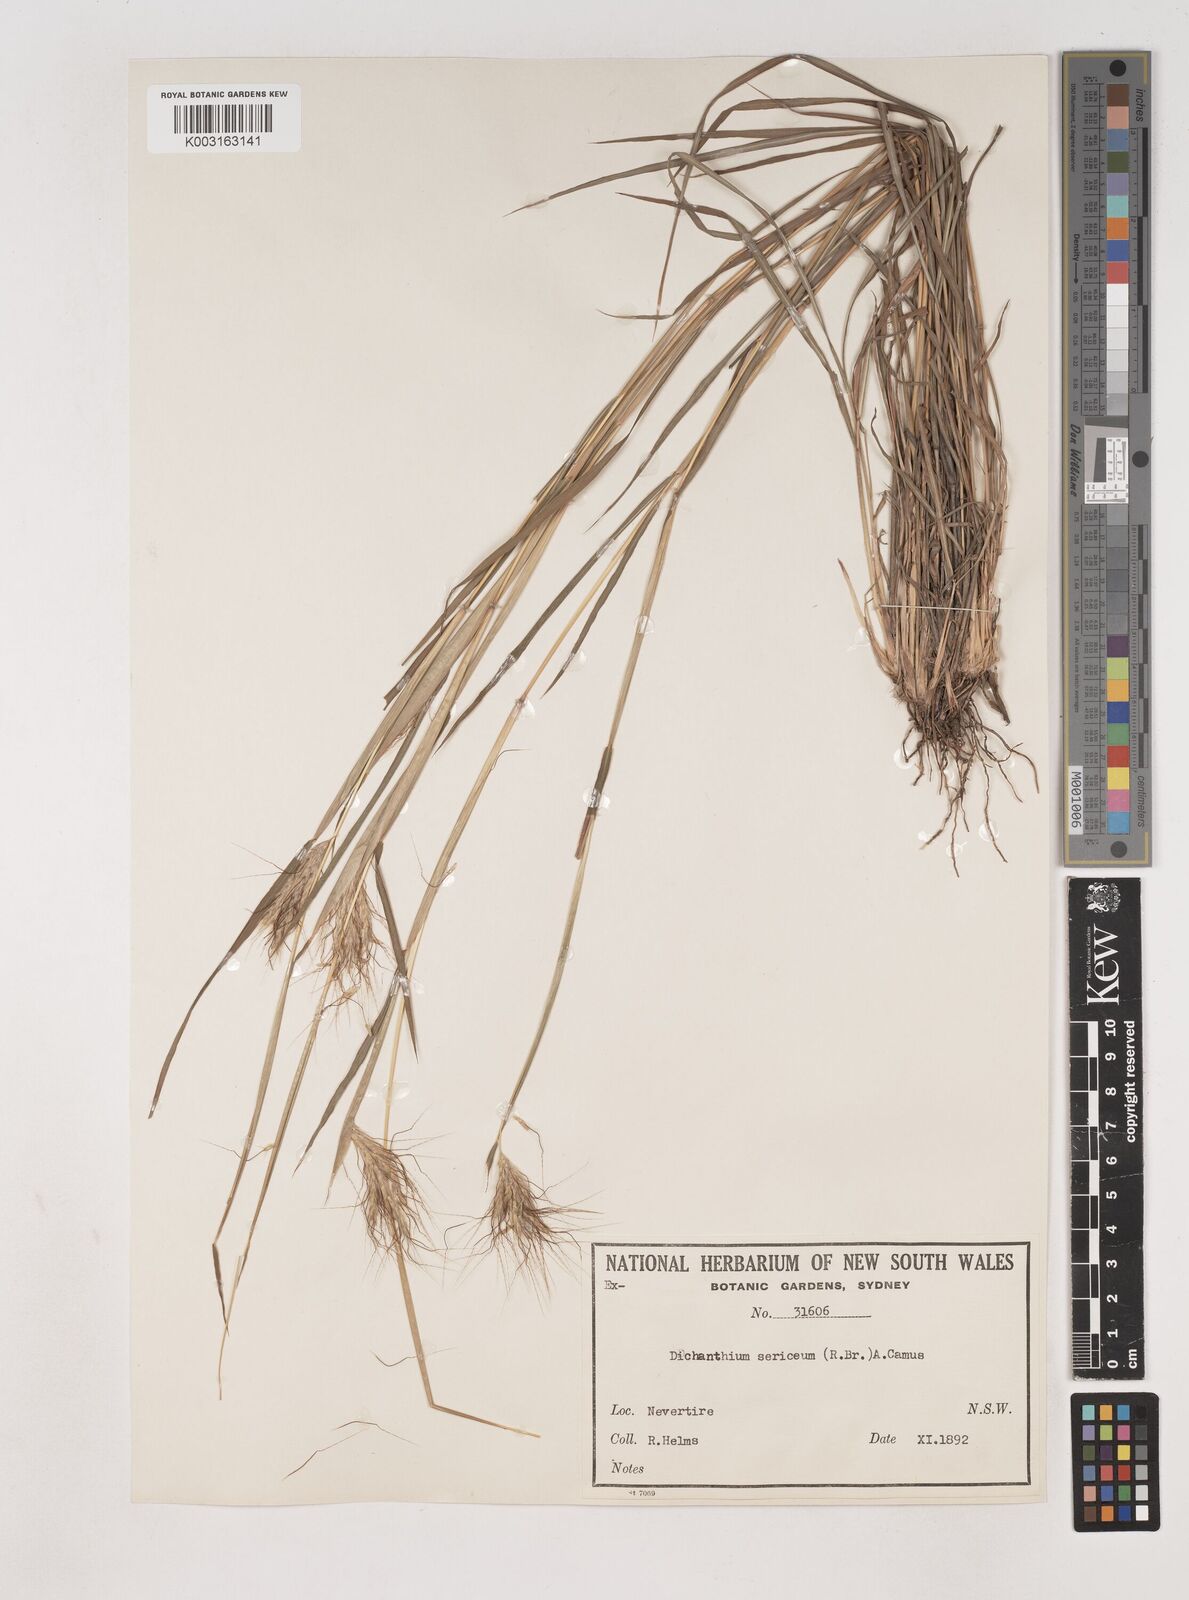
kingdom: Plantae
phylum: Tracheophyta
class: Liliopsida
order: Poales
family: Poaceae
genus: Dichanthium
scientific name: Dichanthium sericeum
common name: Silky bluestem
